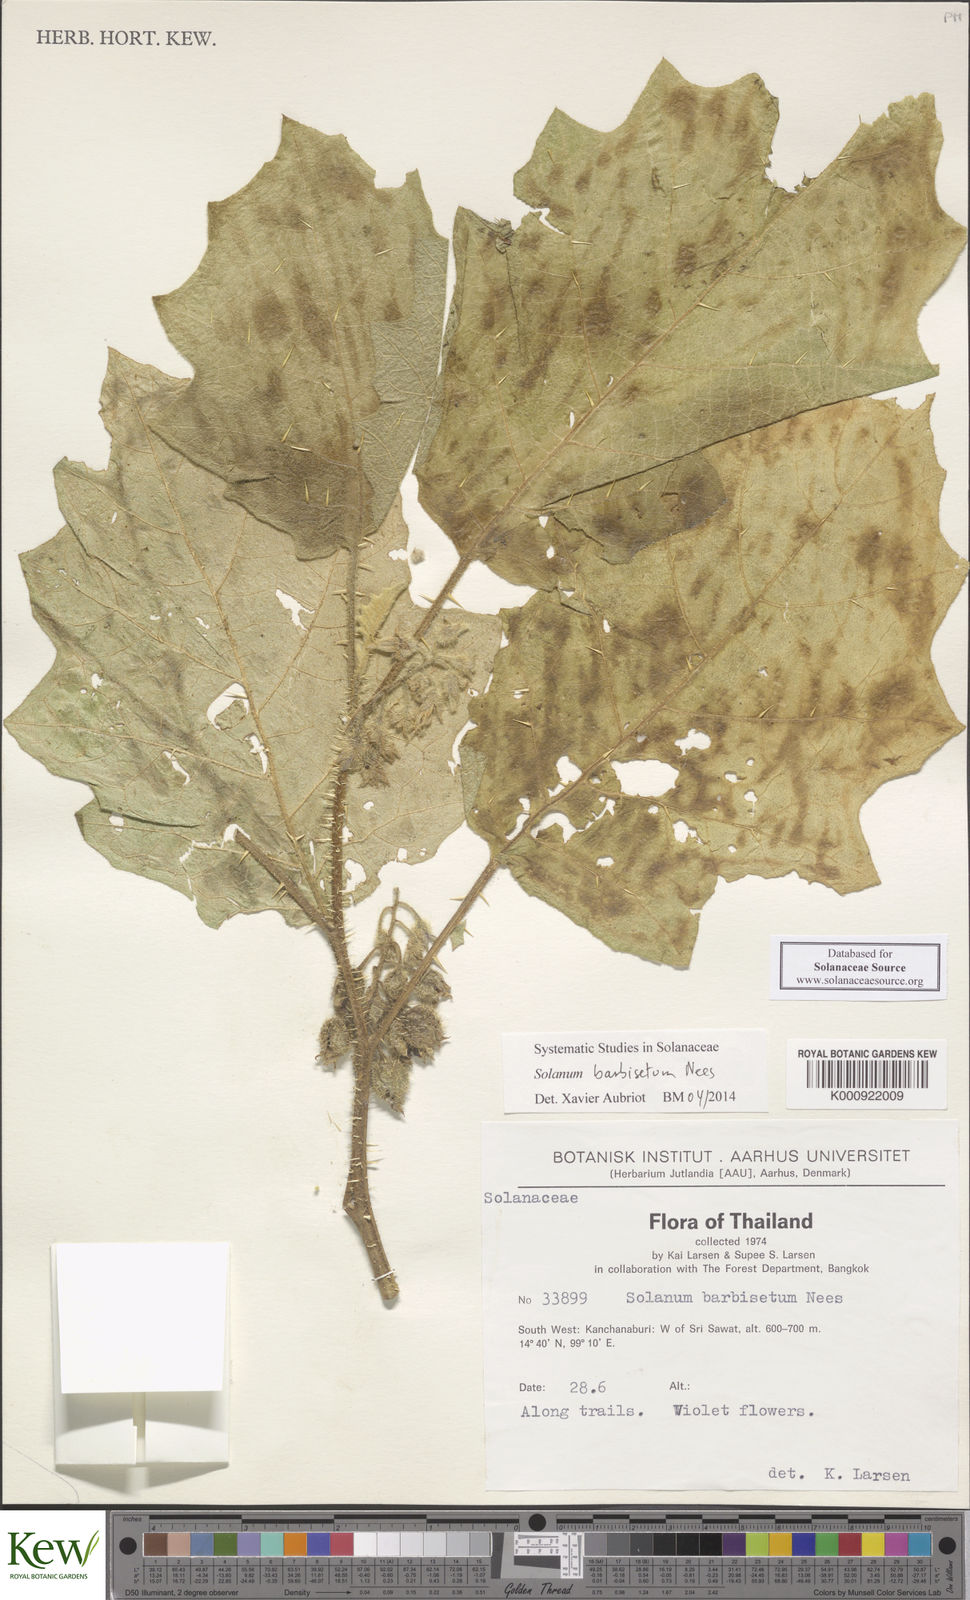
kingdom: Plantae
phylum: Tracheophyta
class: Magnoliopsida
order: Solanales
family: Solanaceae
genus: Solanum
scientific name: Solanum barbisetum
